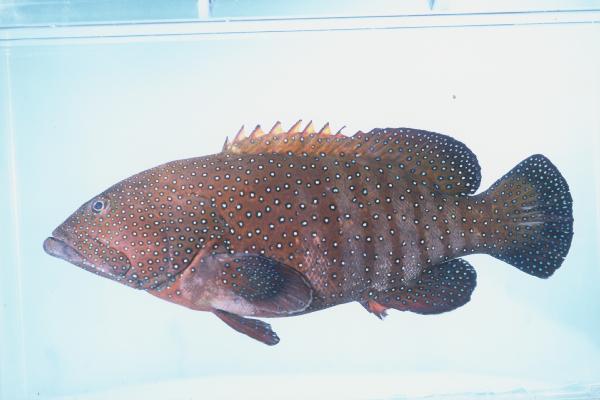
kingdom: Animalia
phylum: Chordata
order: Perciformes
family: Serranidae
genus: Cephalopholis
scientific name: Cephalopholis argus
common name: Peacock grouper
